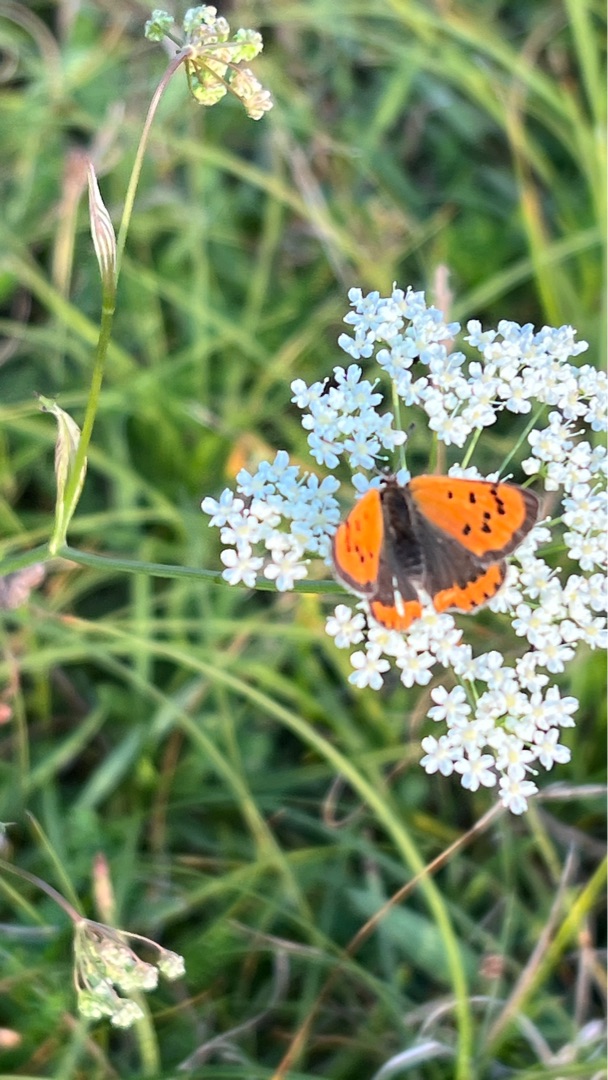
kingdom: Animalia
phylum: Arthropoda
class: Insecta
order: Lepidoptera
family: Lycaenidae
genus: Lycaena
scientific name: Lycaena phlaeas
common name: Lille ildfugl
